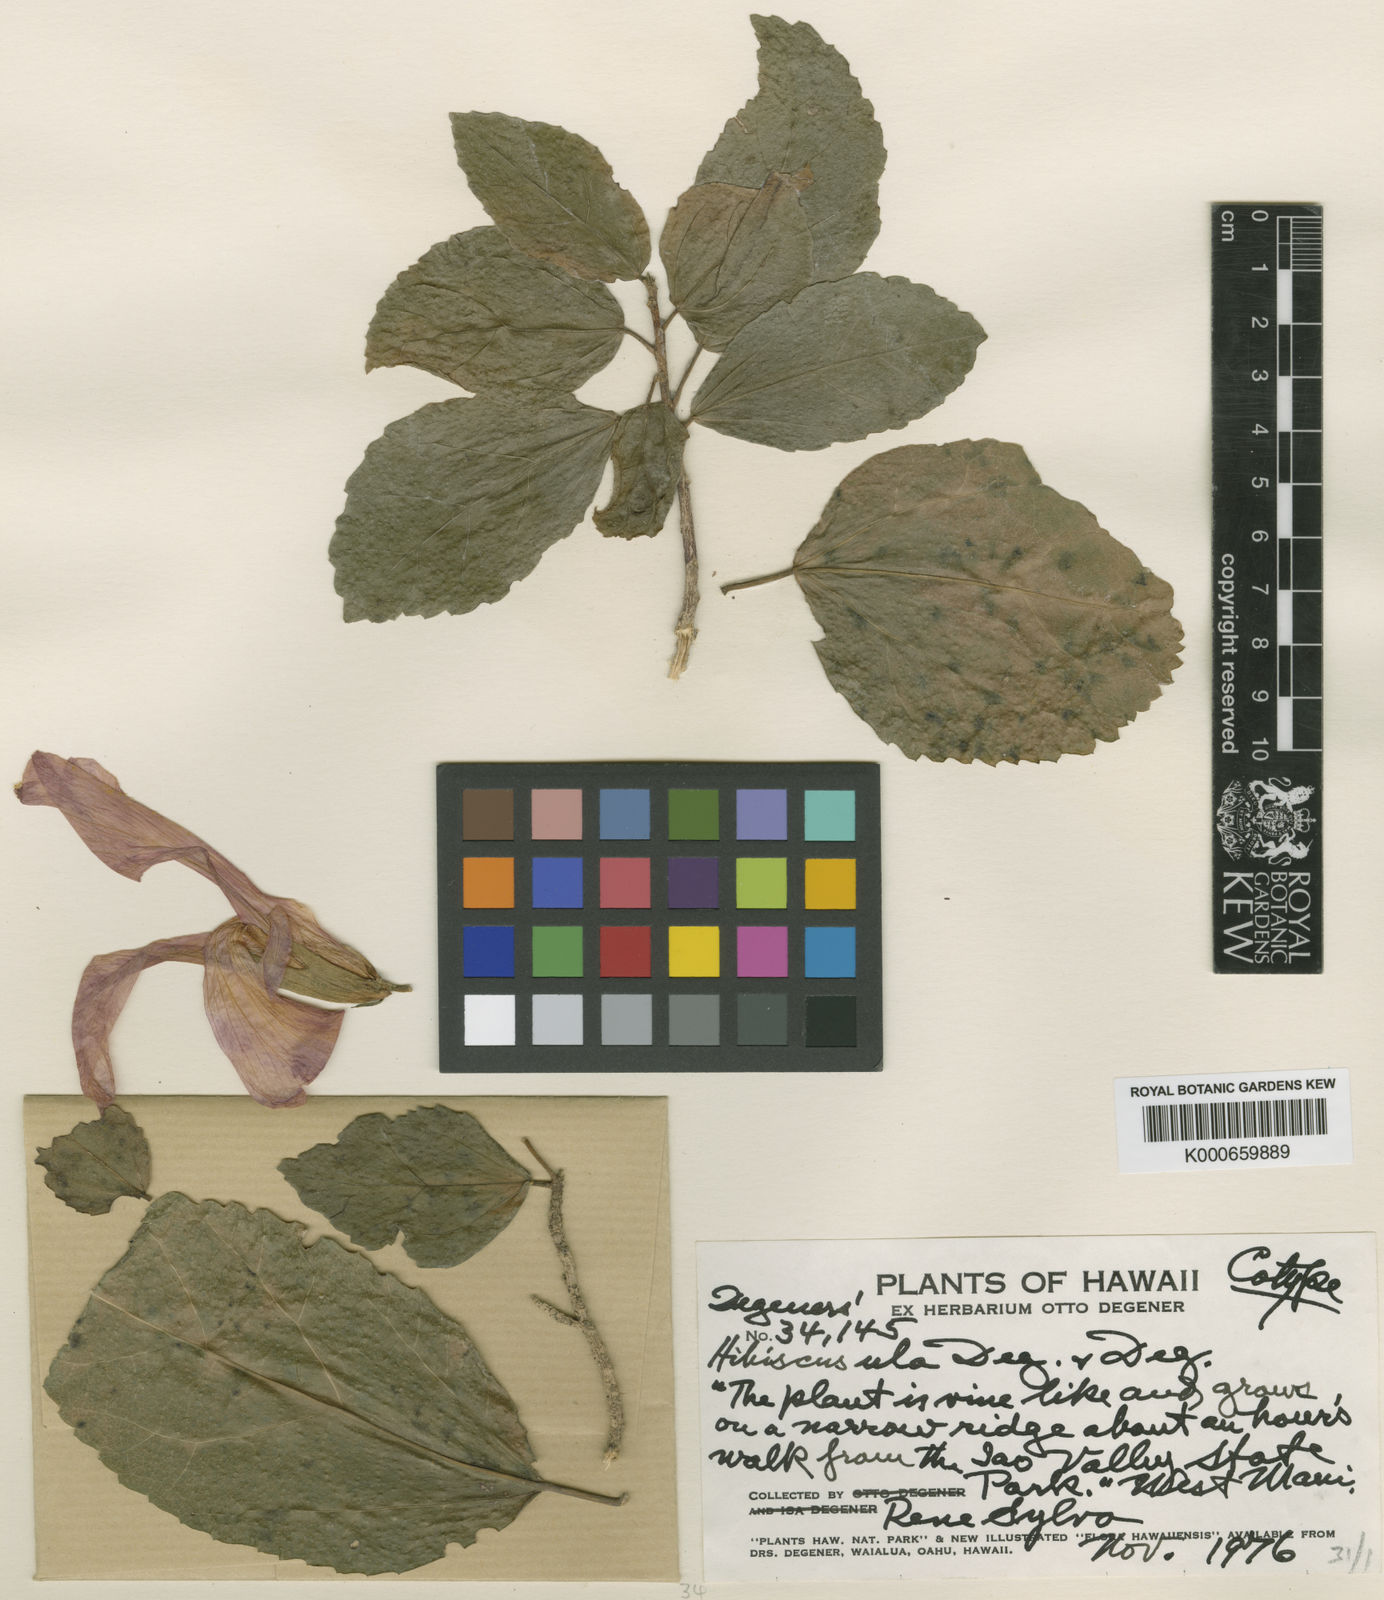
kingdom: Plantae
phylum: Tracheophyta
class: Magnoliopsida
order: Malvales
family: Malvaceae
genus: Hibiscus
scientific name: Hibiscus kokio
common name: Saint john's rosemallow
